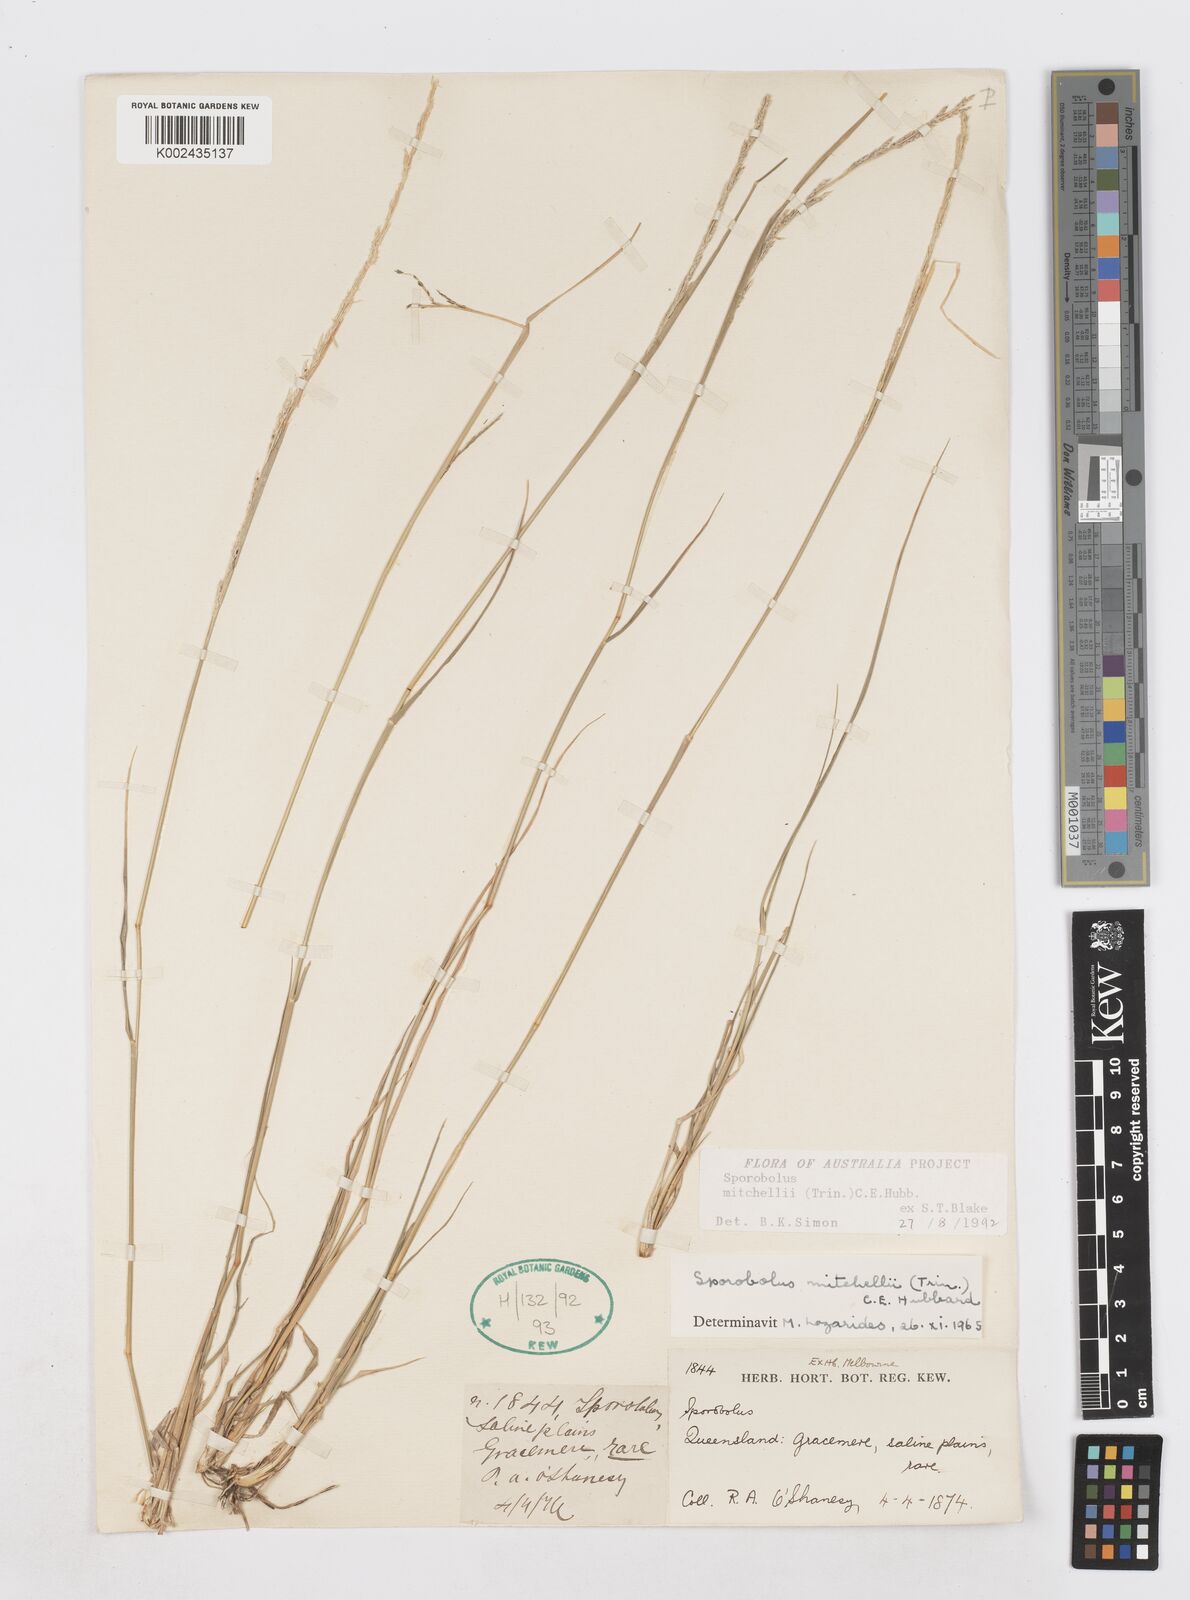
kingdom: Plantae
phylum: Tracheophyta
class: Liliopsida
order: Poales
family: Poaceae
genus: Sporobolus
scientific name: Sporobolus mitchellii
